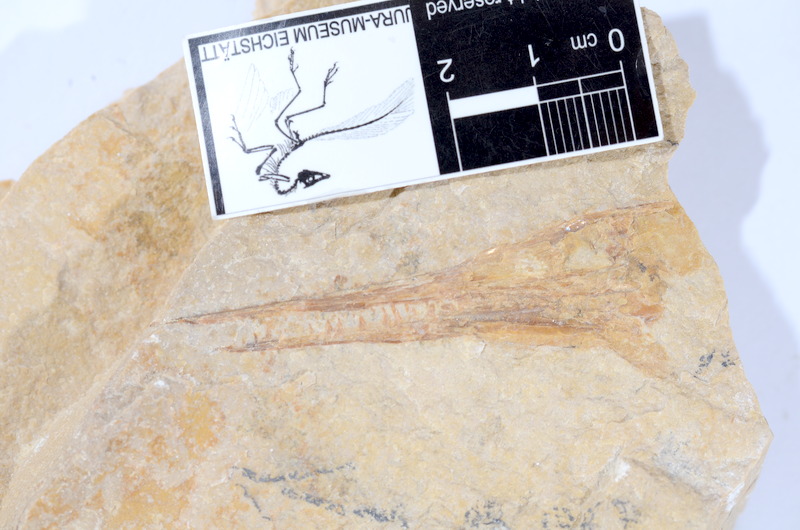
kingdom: Animalia
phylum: Chordata
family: Aspidorhynchidae
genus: Belonostomus
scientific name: Belonostomus tenuirostris
